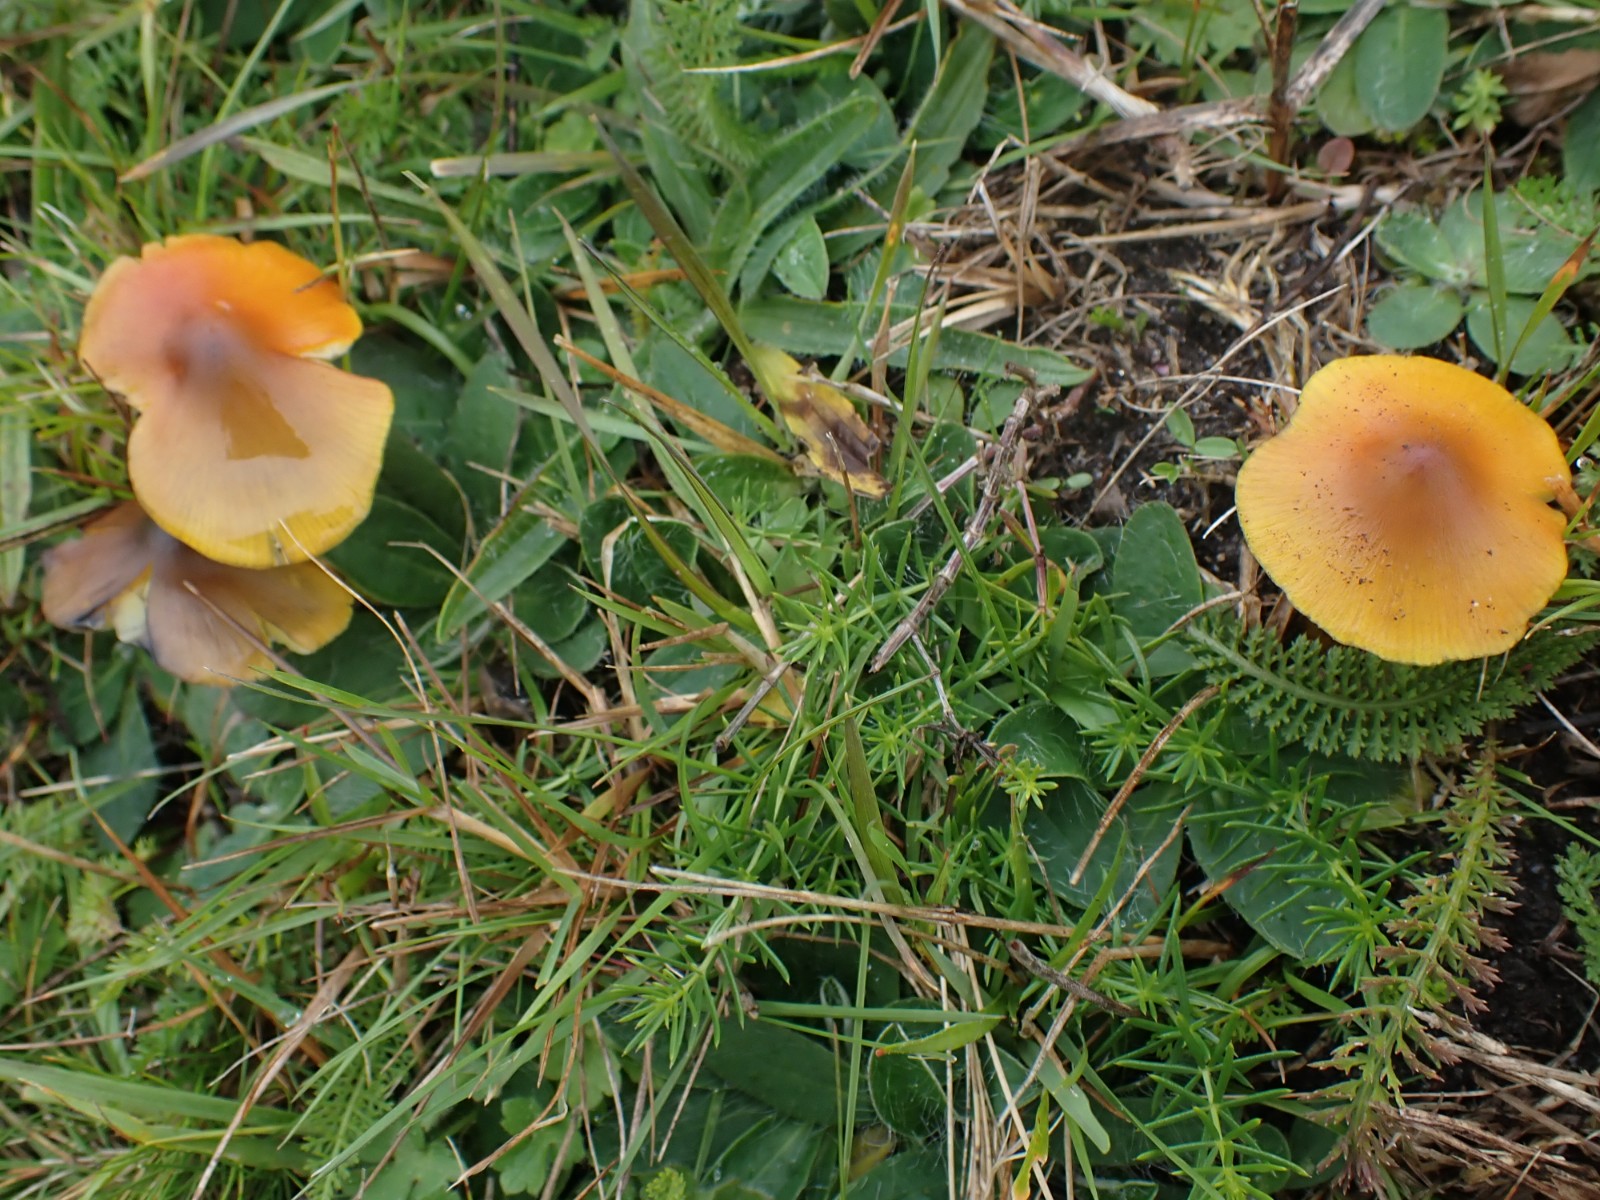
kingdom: Fungi
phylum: Basidiomycota
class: Agaricomycetes
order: Agaricales
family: Hygrophoraceae
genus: Hygrocybe
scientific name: Hygrocybe conica
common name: kegle-vokshat
